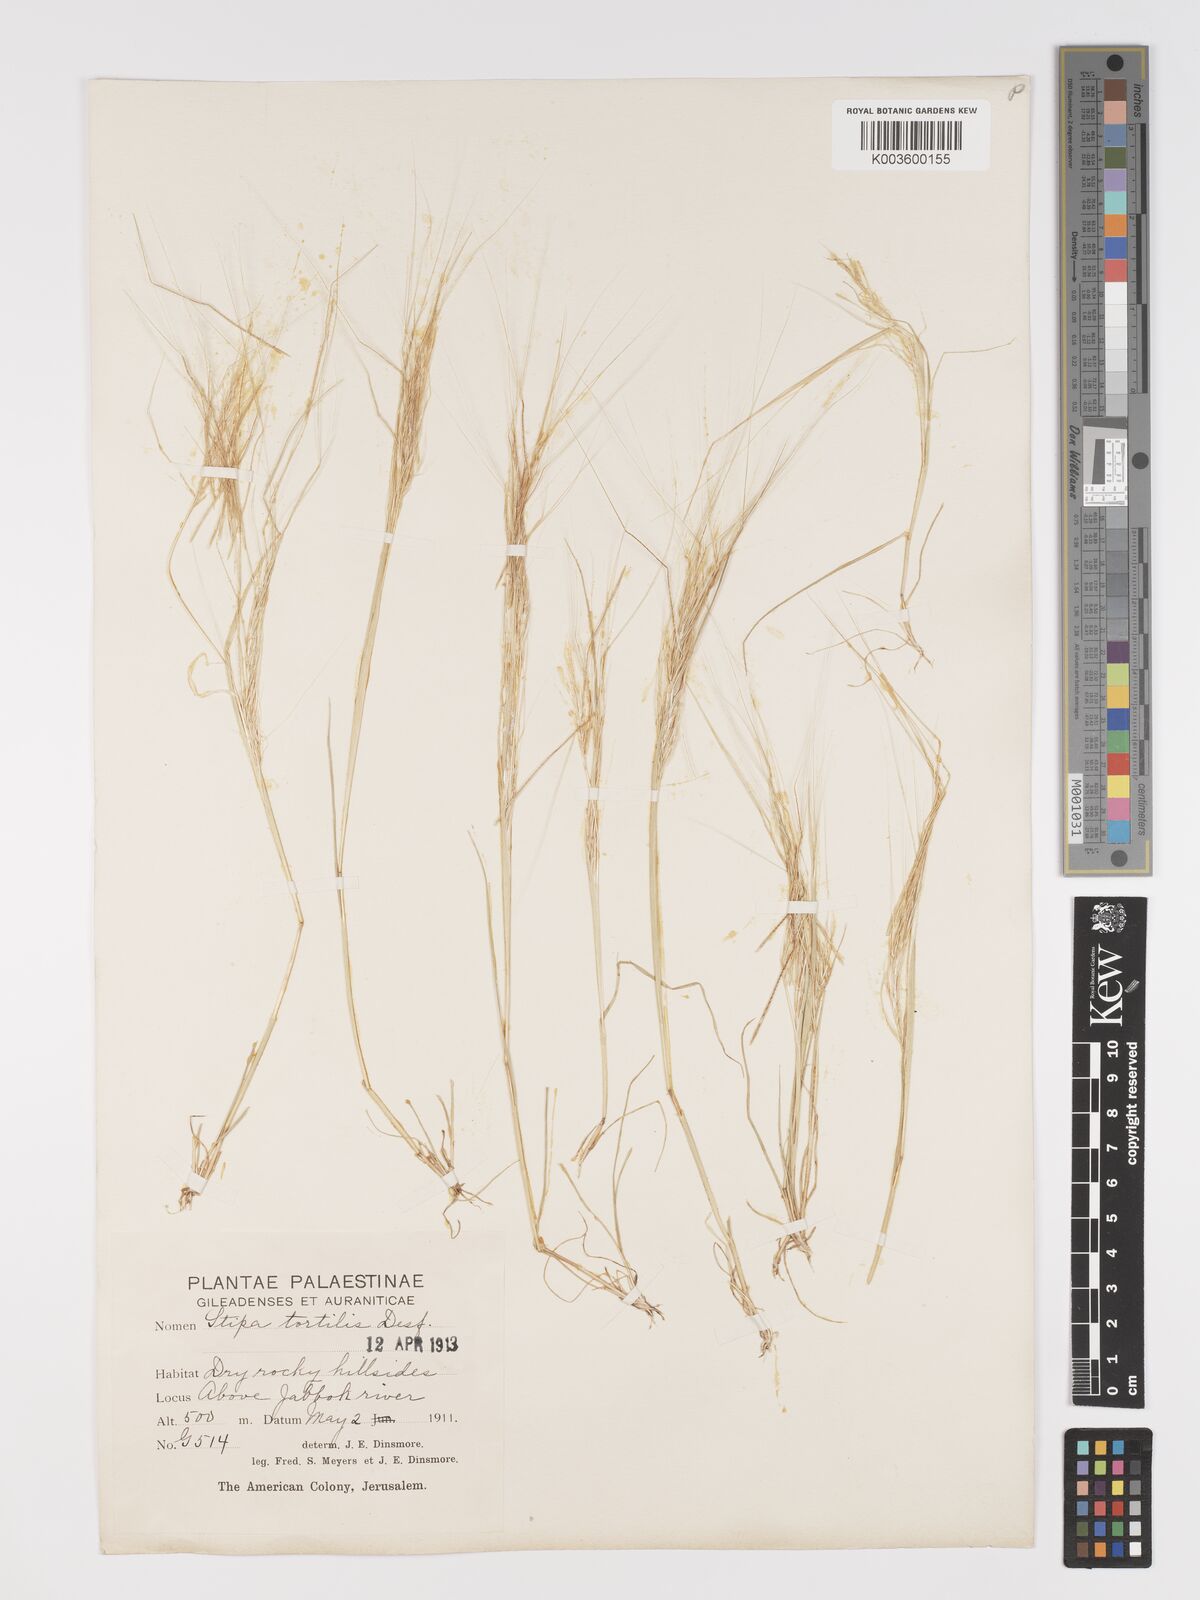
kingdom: Plantae
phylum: Tracheophyta
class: Liliopsida
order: Poales
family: Poaceae
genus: Stipellula
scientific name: Stipellula capensis
